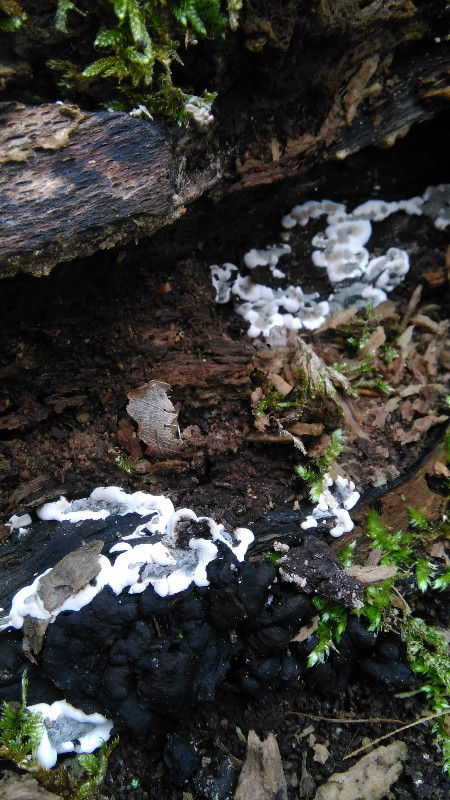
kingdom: Fungi
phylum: Ascomycota
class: Sordariomycetes
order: Xylariales
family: Xylariaceae
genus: Kretzschmaria
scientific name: Kretzschmaria deusta
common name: stor kulsvamp
